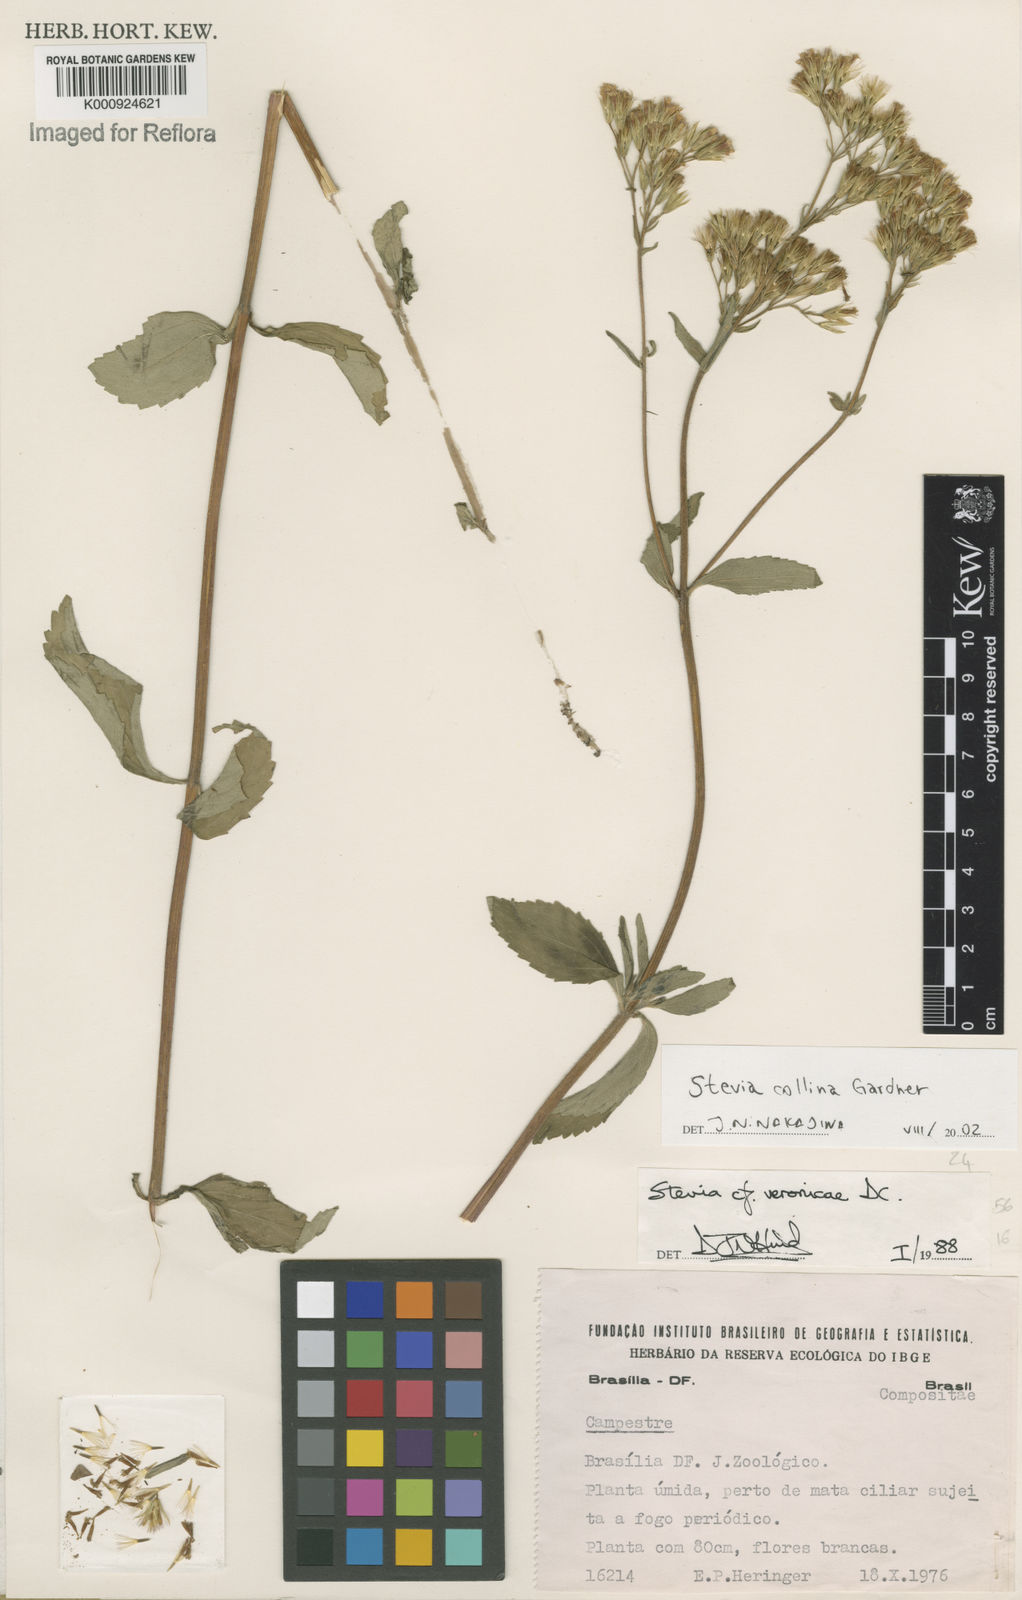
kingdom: Plantae
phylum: Tracheophyta
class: Magnoliopsida
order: Asterales
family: Asteraceae
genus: Stevia
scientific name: Stevia collina
